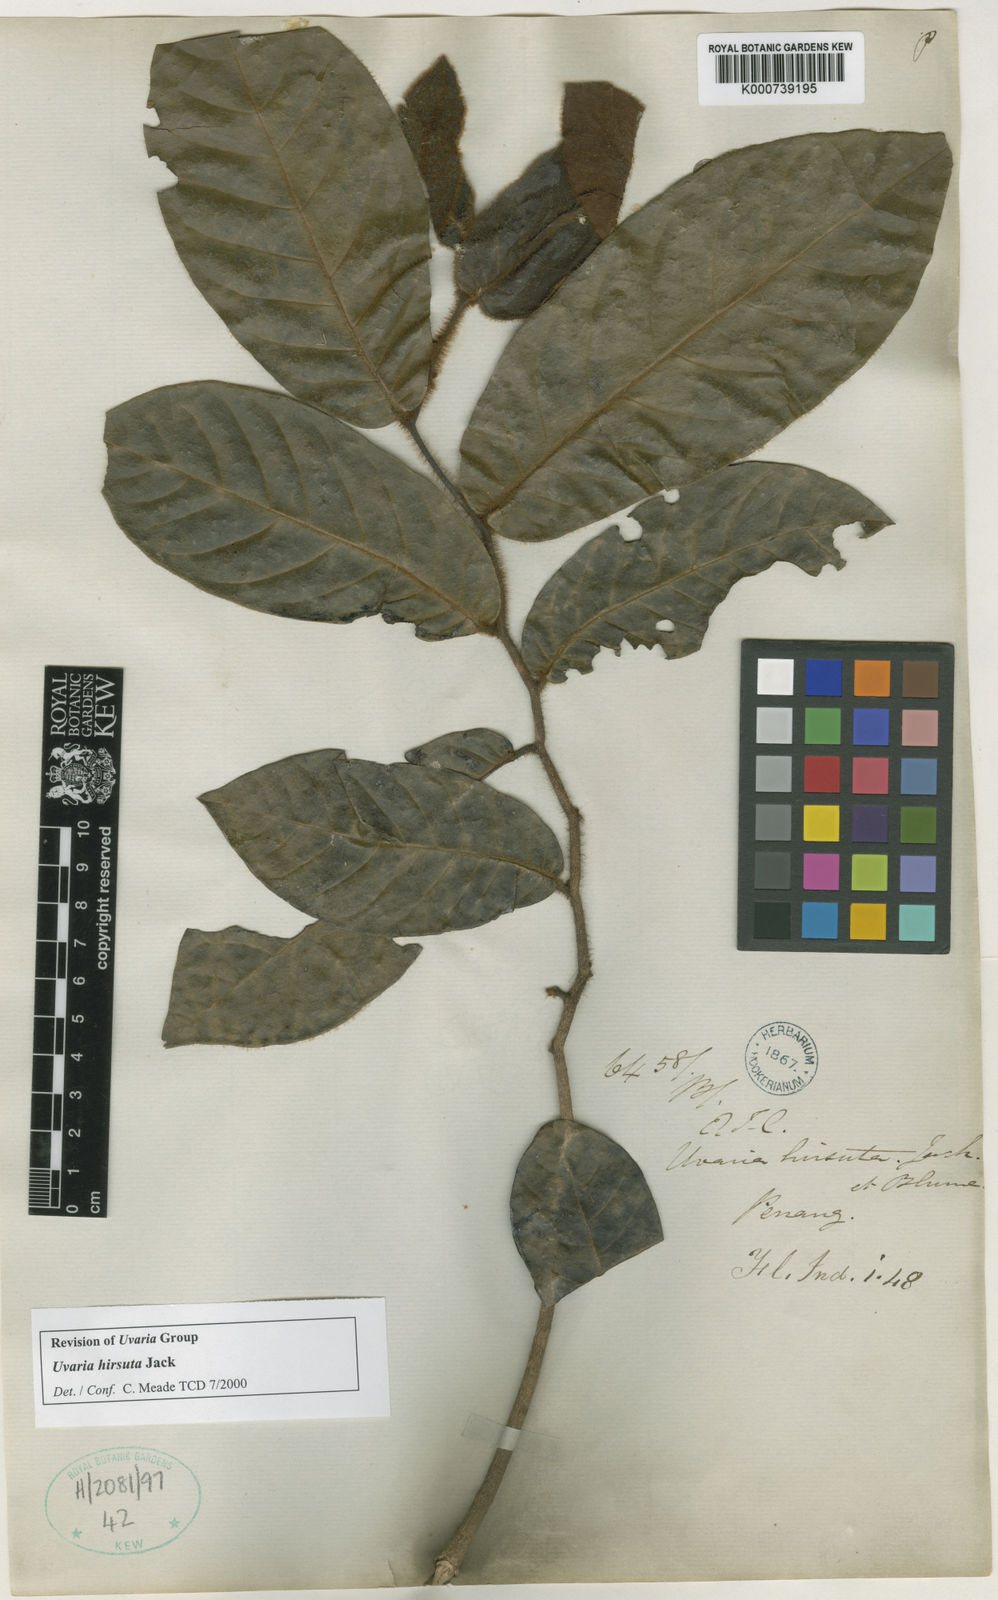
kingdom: Plantae
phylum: Tracheophyta
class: Magnoliopsida
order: Magnoliales
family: Annonaceae
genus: Uvaria
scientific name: Uvaria hirsuta
